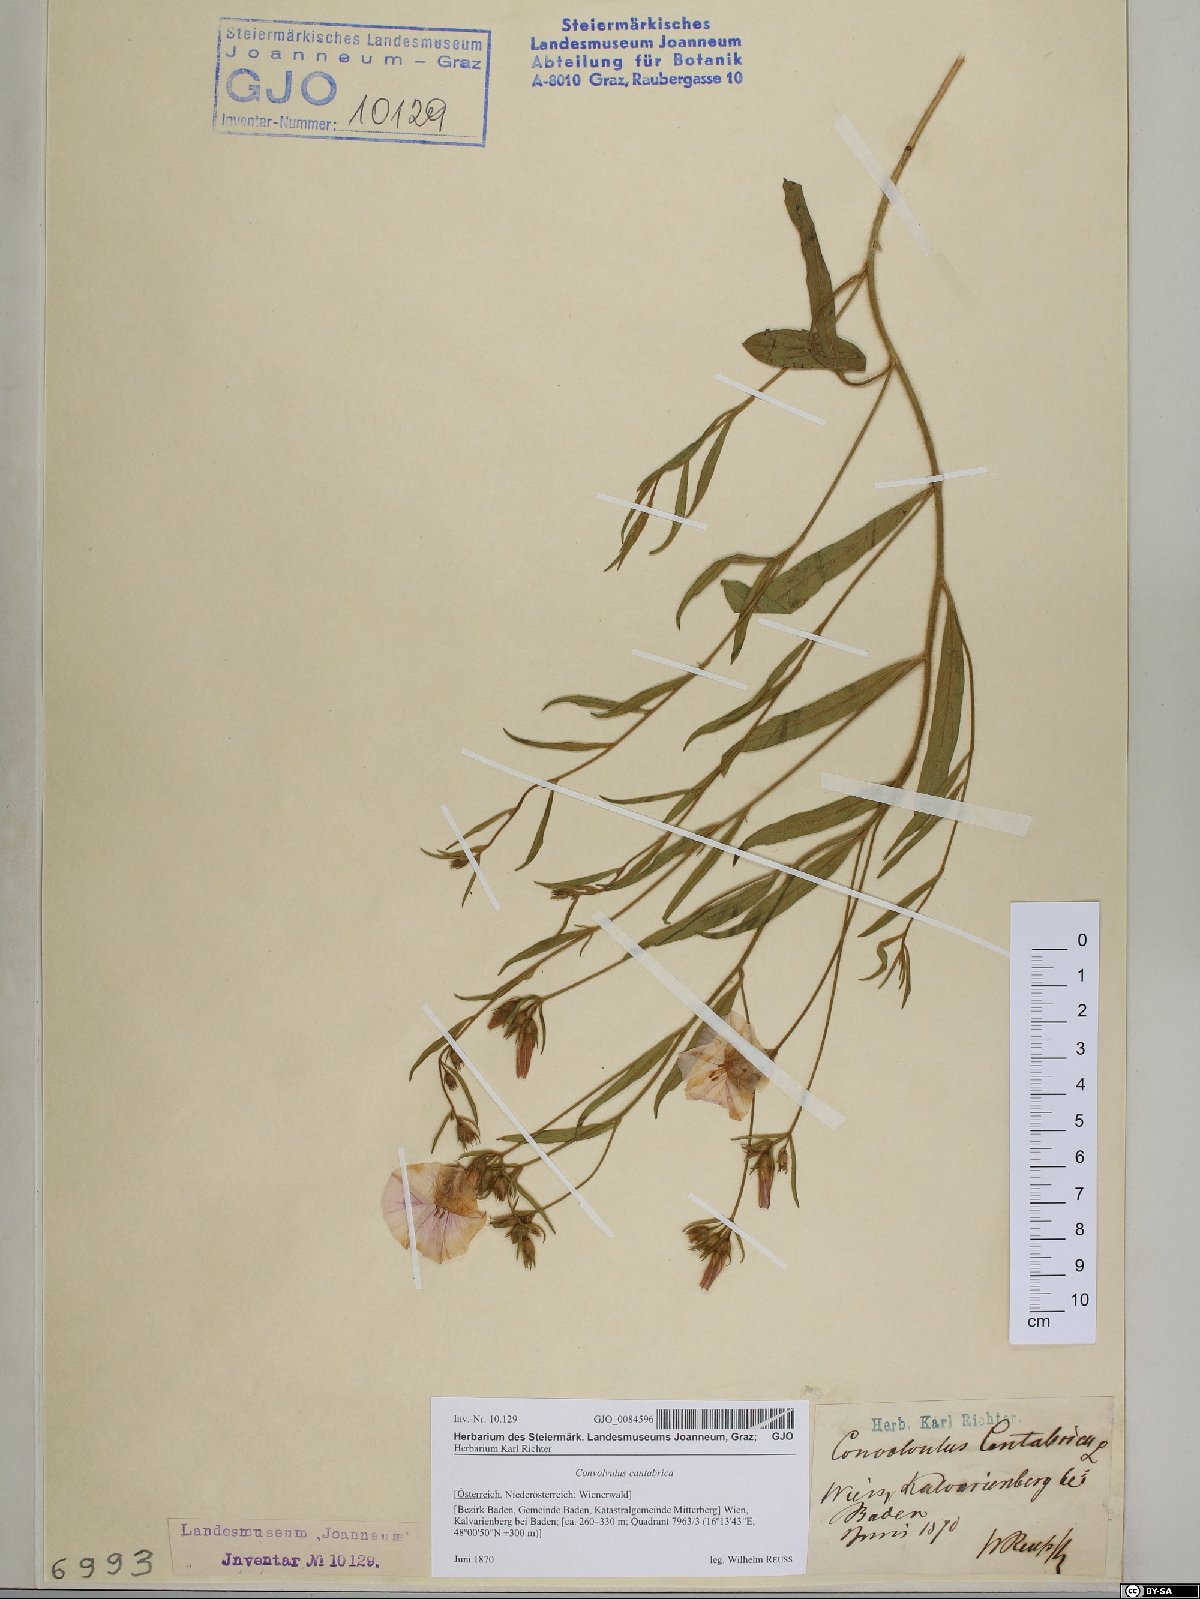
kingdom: Plantae
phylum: Tracheophyta
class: Magnoliopsida
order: Solanales
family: Convolvulaceae
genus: Convolvulus
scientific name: Convolvulus cantabrica
